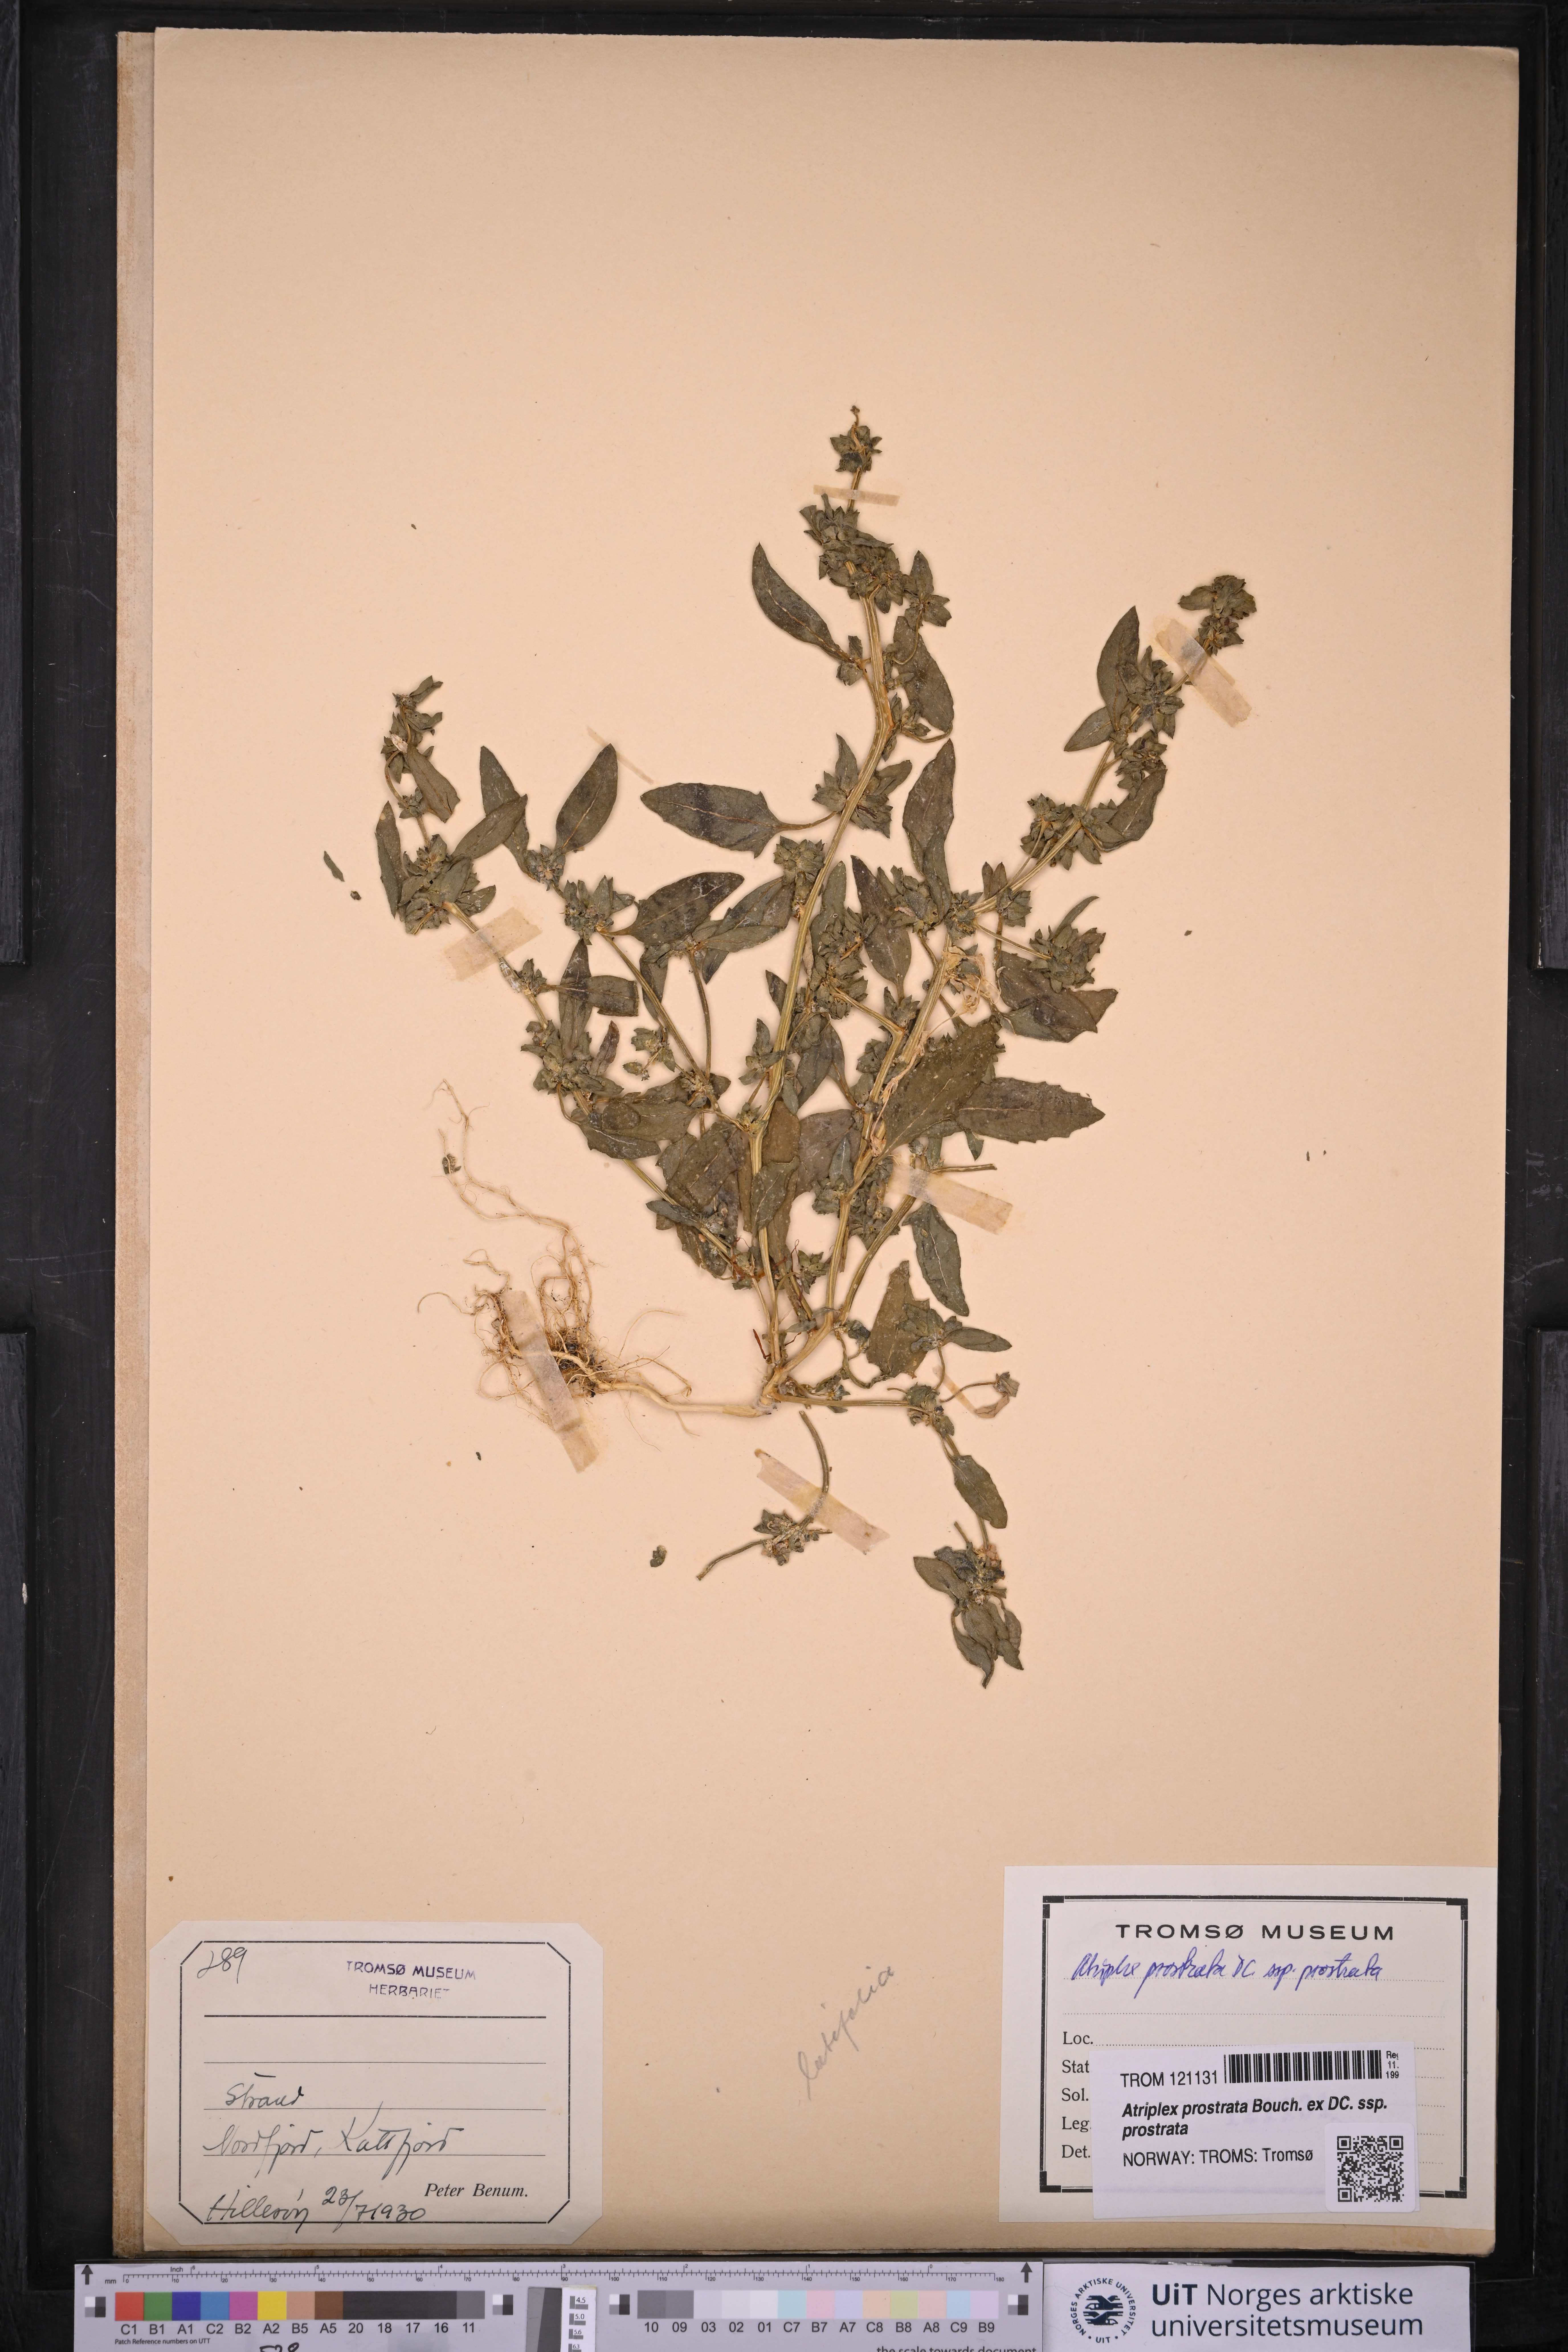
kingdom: Plantae
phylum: Tracheophyta
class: Magnoliopsida
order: Caryophyllales
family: Amaranthaceae
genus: Atriplex
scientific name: Atriplex prostrata
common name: Spear-leaved orache
